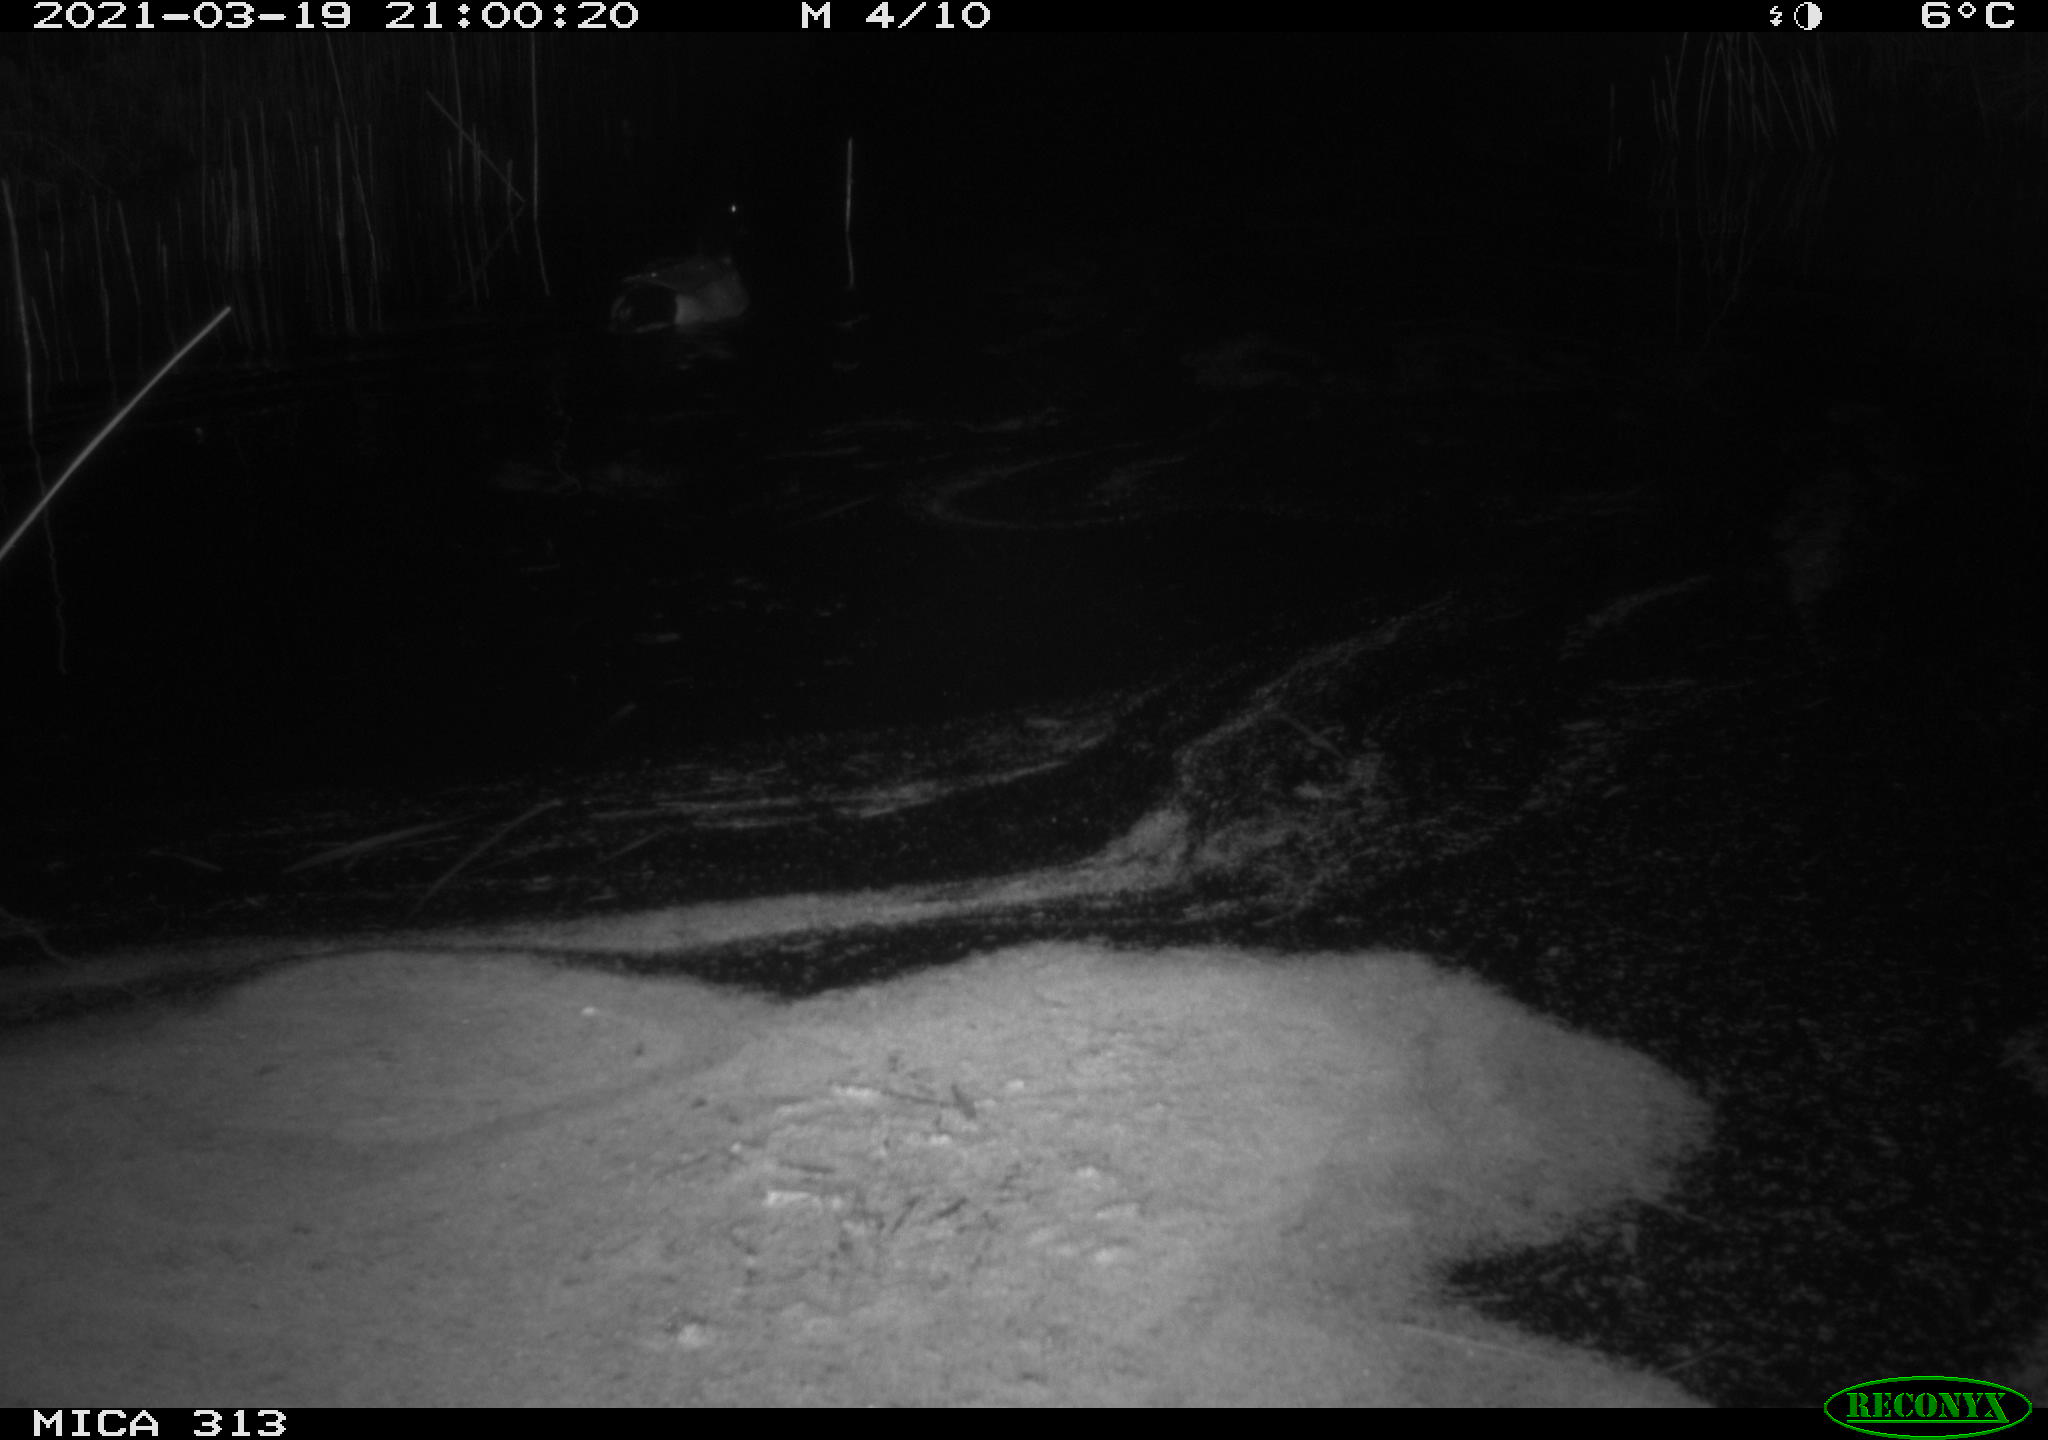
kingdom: Animalia
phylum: Chordata
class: Aves
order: Anseriformes
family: Anatidae
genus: Anas
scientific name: Anas platyrhynchos
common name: Mallard
